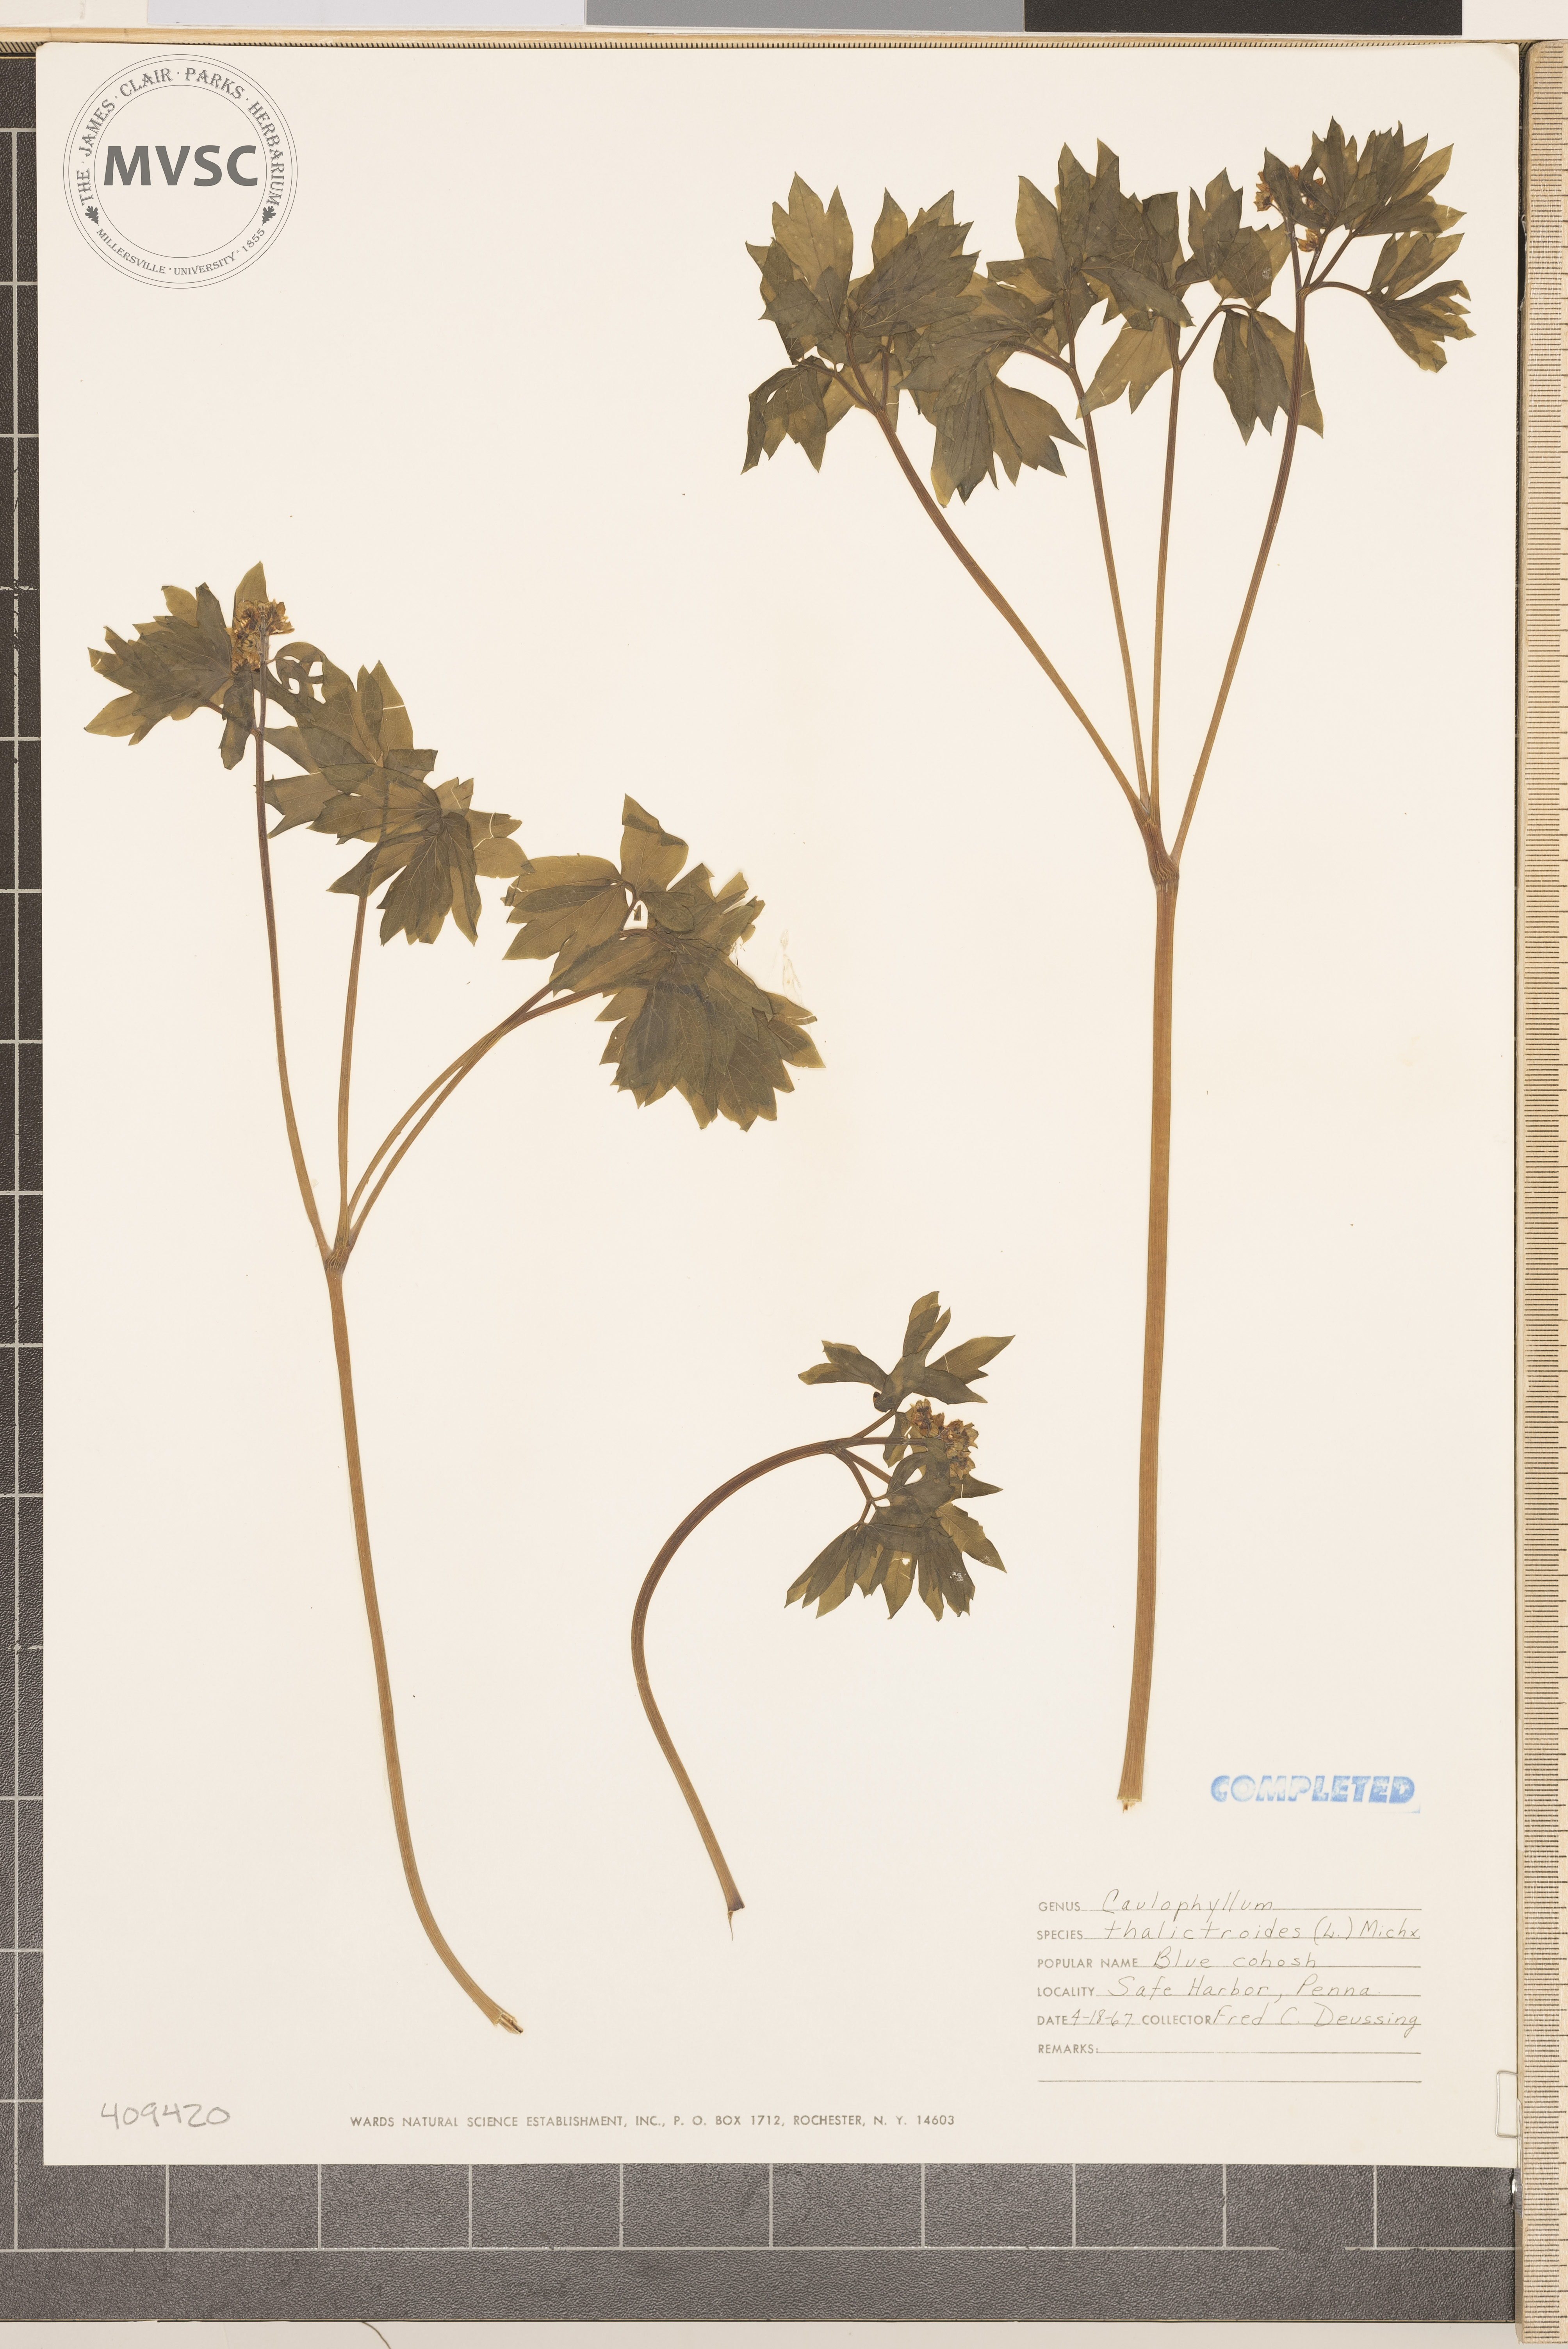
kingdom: Plantae
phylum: Tracheophyta
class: Magnoliopsida
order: Ranunculales
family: Berberidaceae
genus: Caulophyllum
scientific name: Caulophyllum thalictroides
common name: blue cohosh
